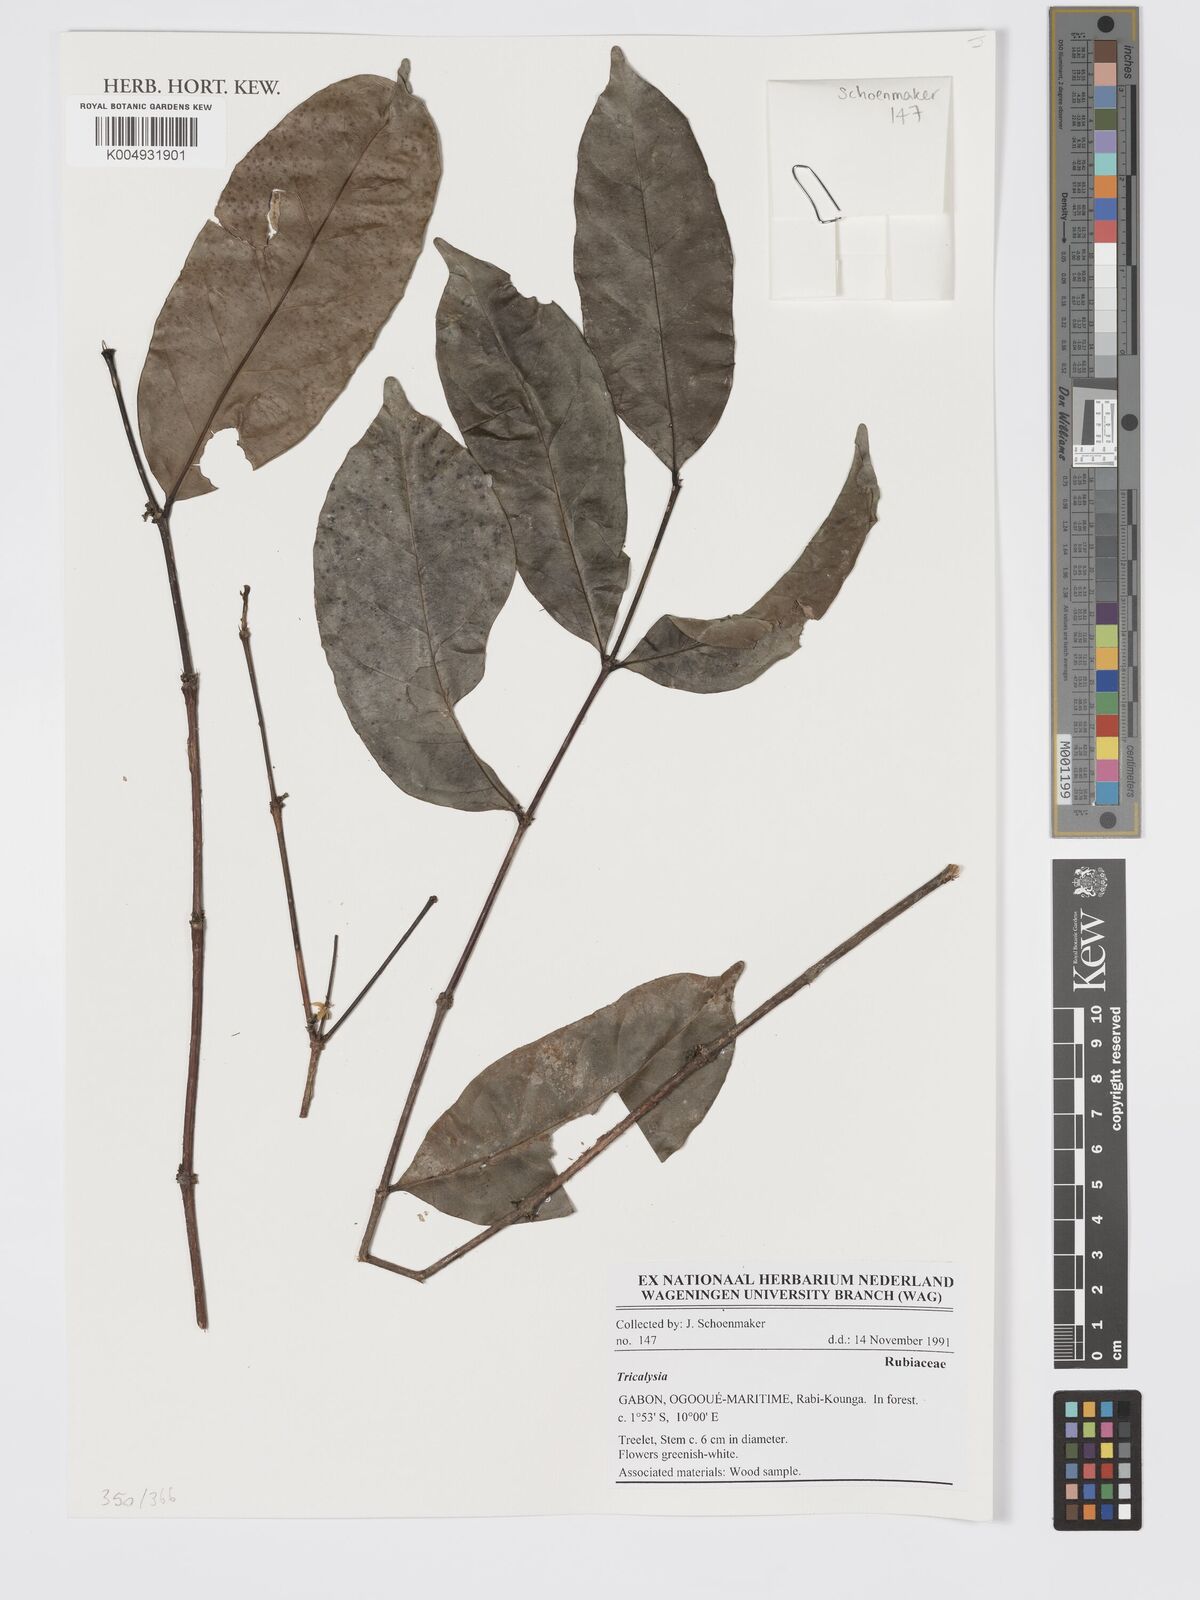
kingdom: Plantae
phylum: Tracheophyta
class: Magnoliopsida
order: Gentianales
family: Rubiaceae
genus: Tricalysia
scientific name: Tricalysia
